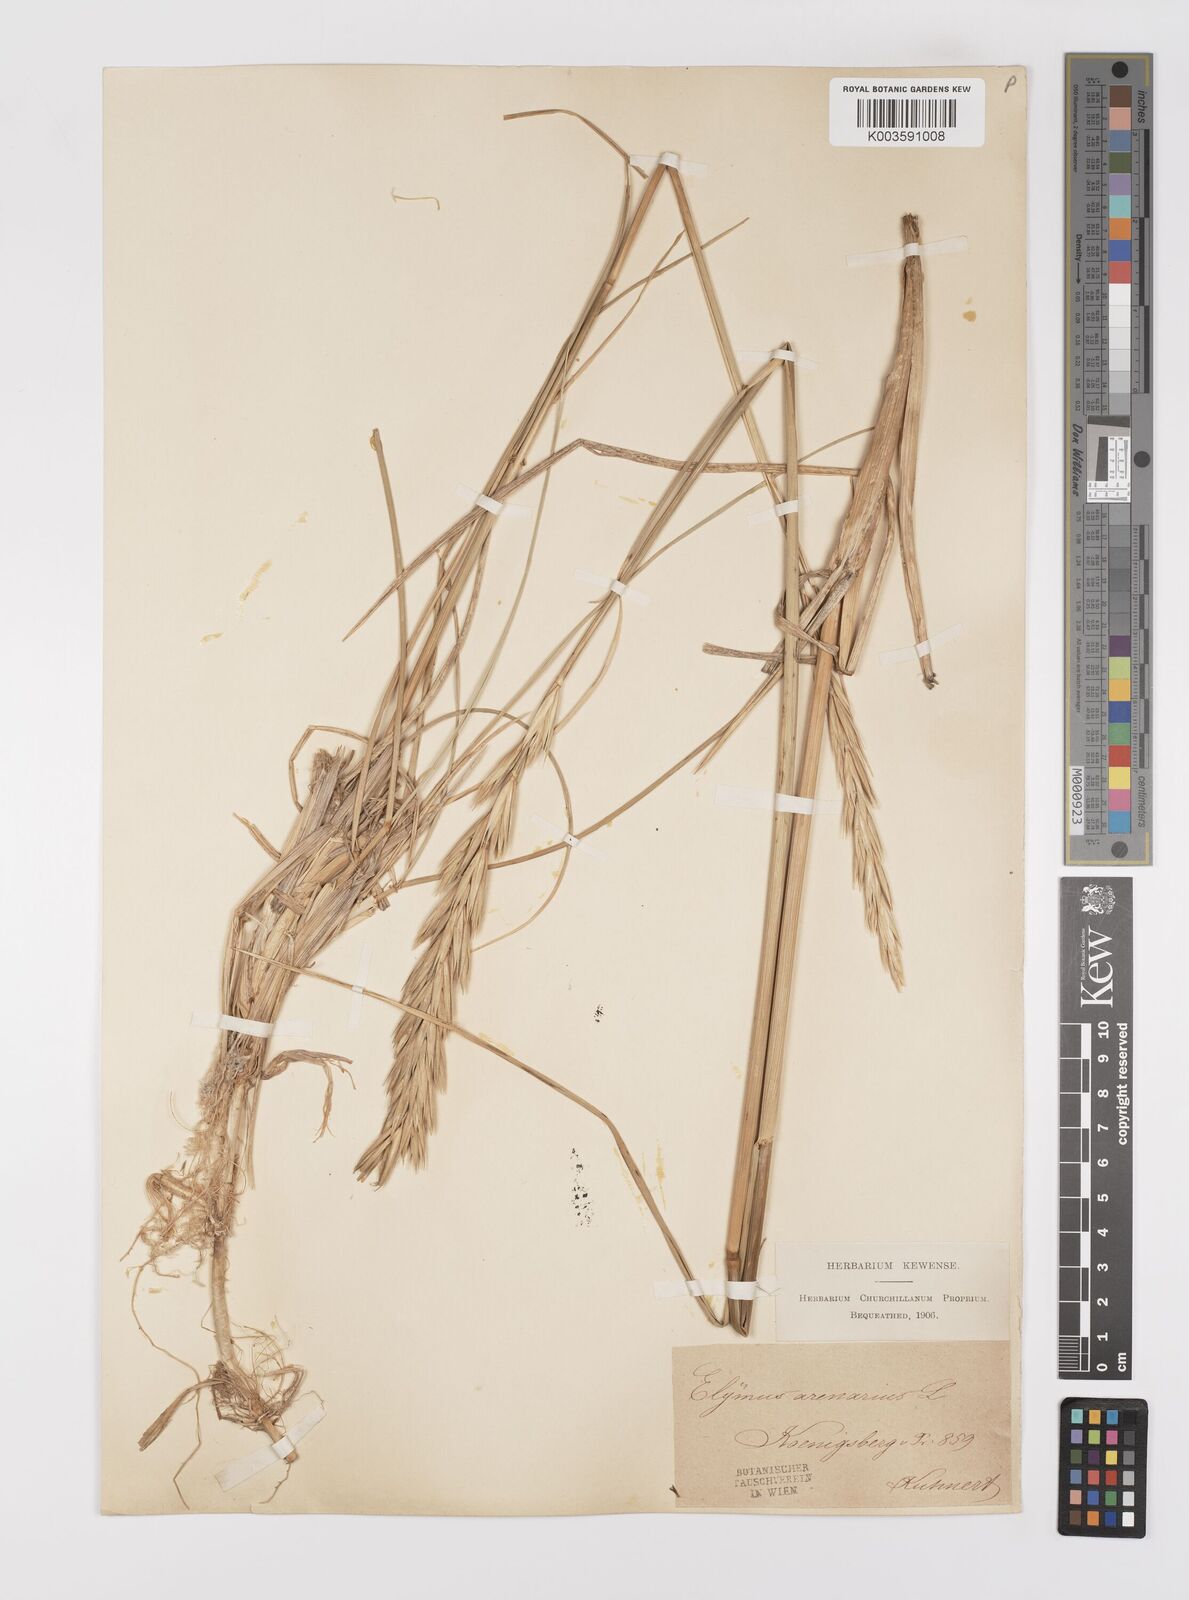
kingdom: Plantae
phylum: Tracheophyta
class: Liliopsida
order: Poales
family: Poaceae
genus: Leymus
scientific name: Leymus arenarius
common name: Lyme-grass
